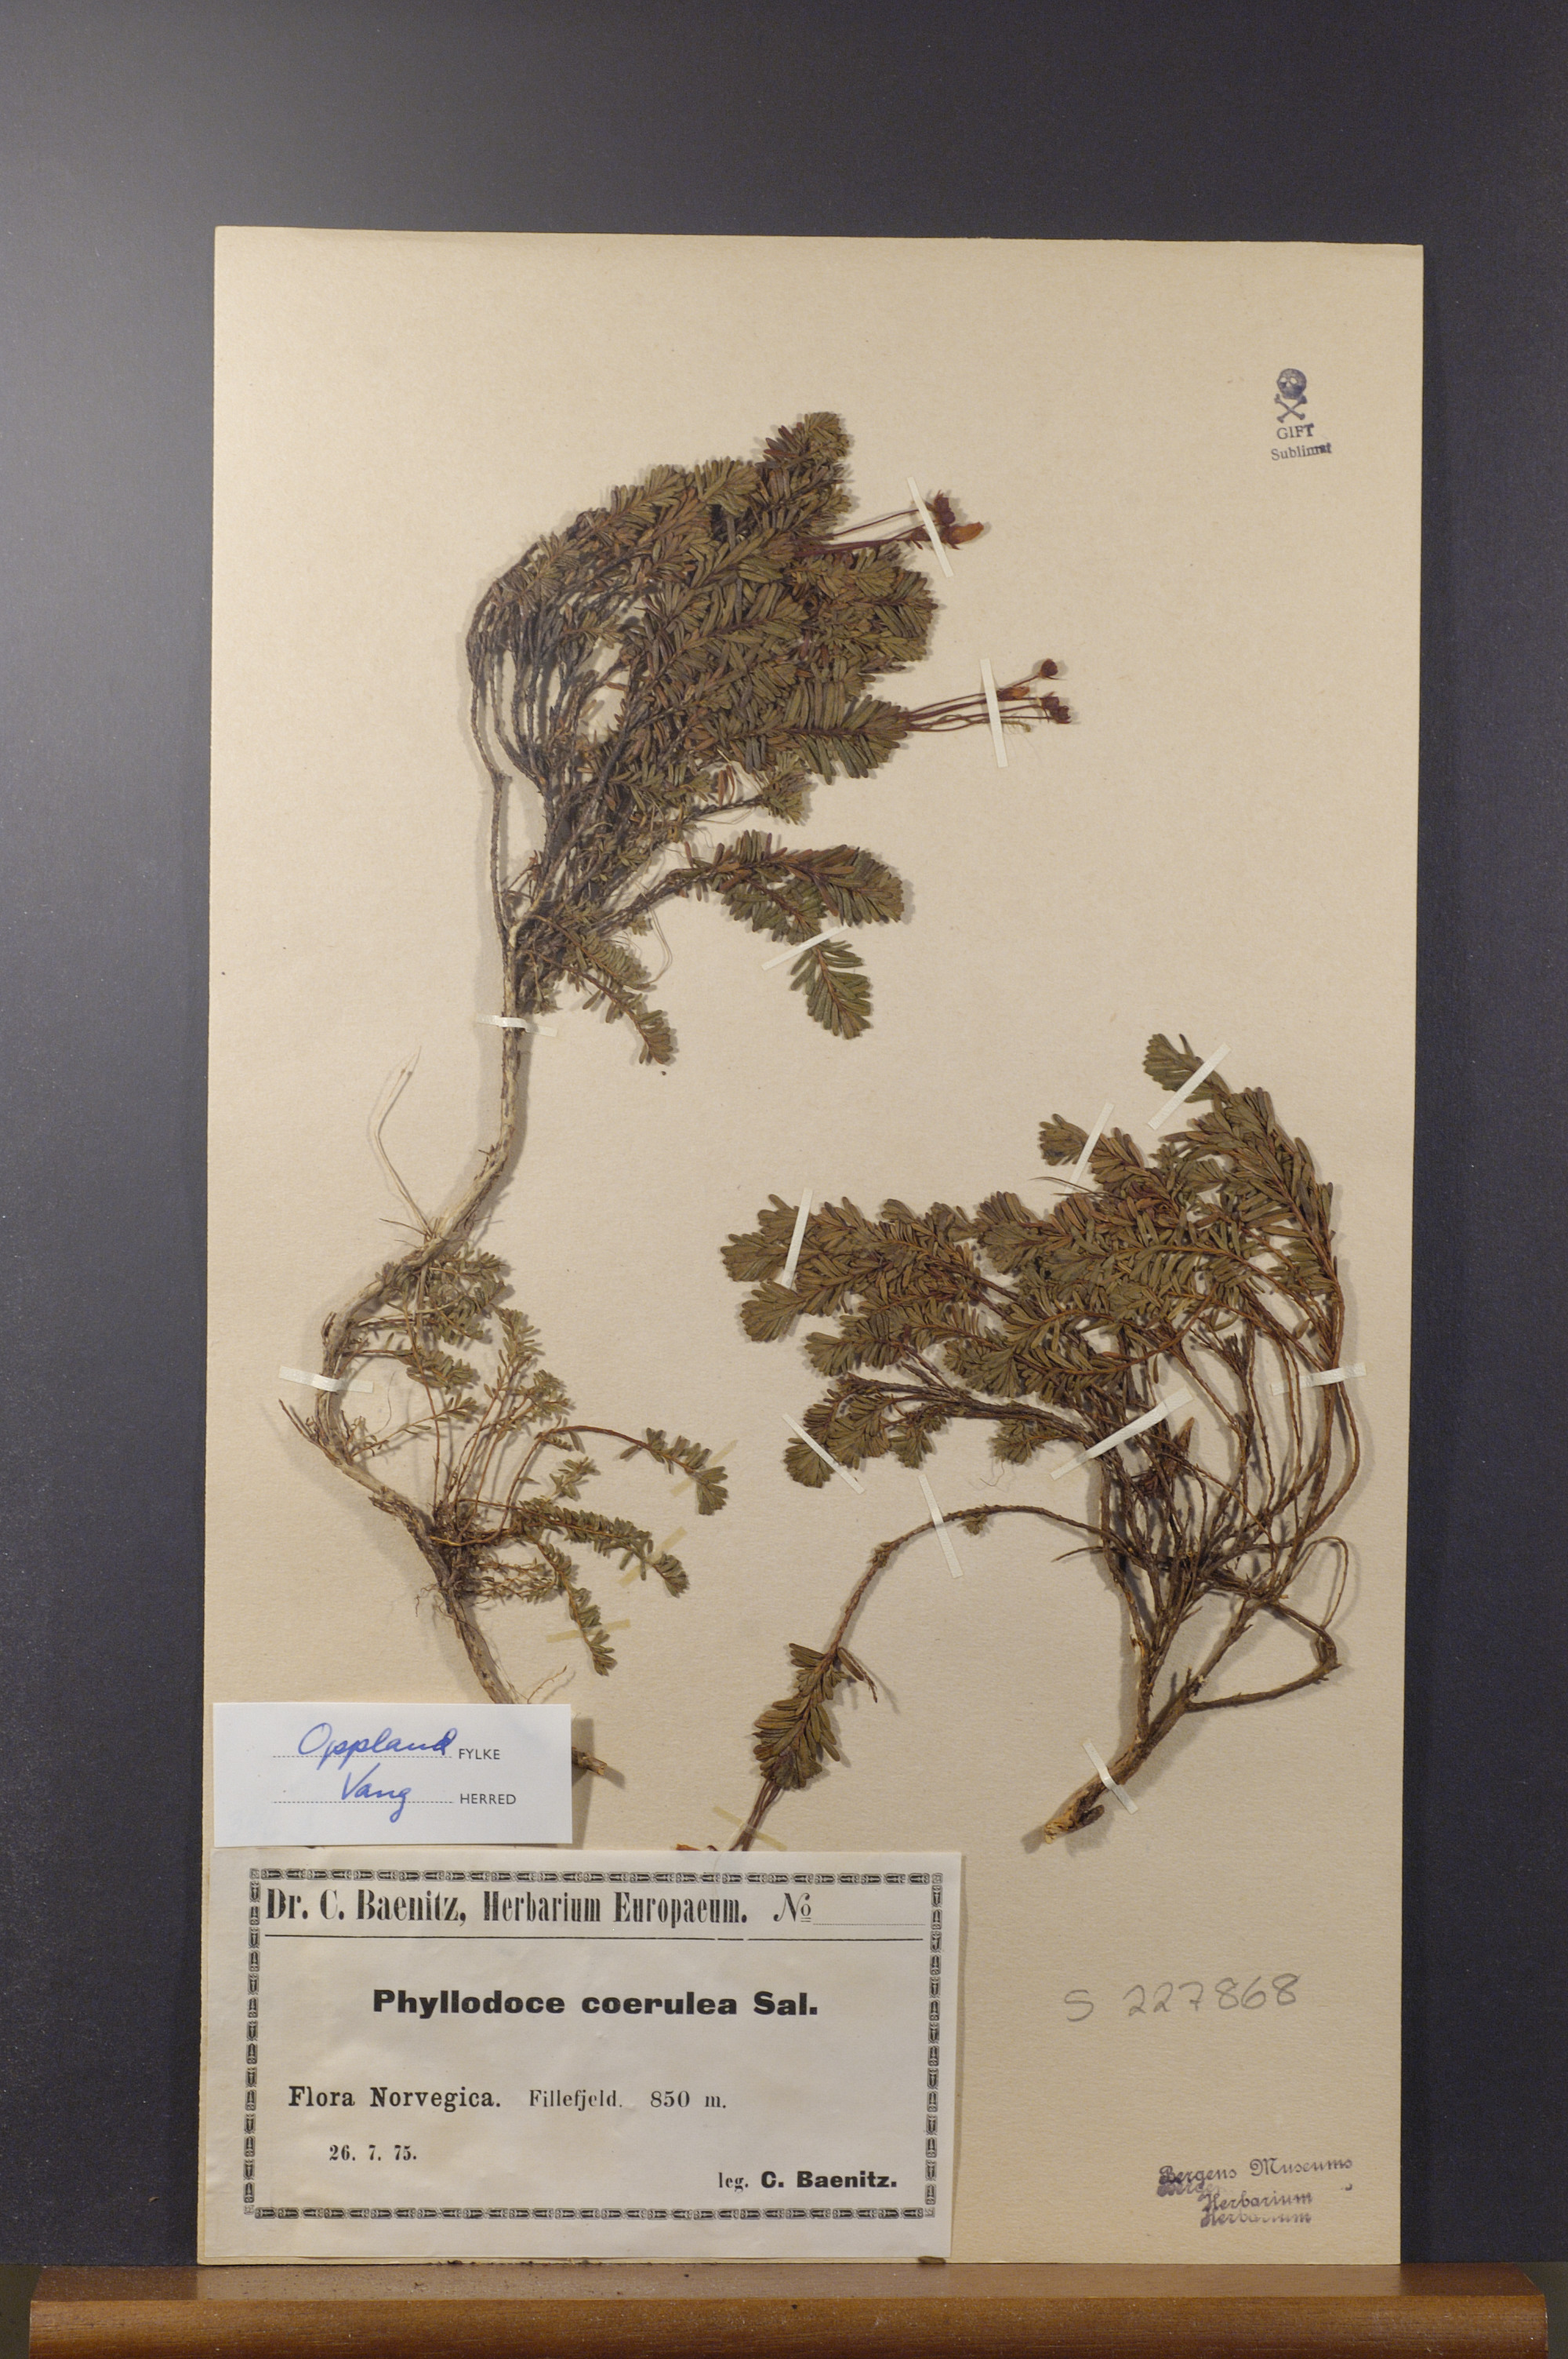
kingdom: Plantae
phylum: Tracheophyta
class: Magnoliopsida
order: Ericales
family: Ericaceae
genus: Phyllodoce
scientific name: Phyllodoce caerulea
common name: Blue heath
